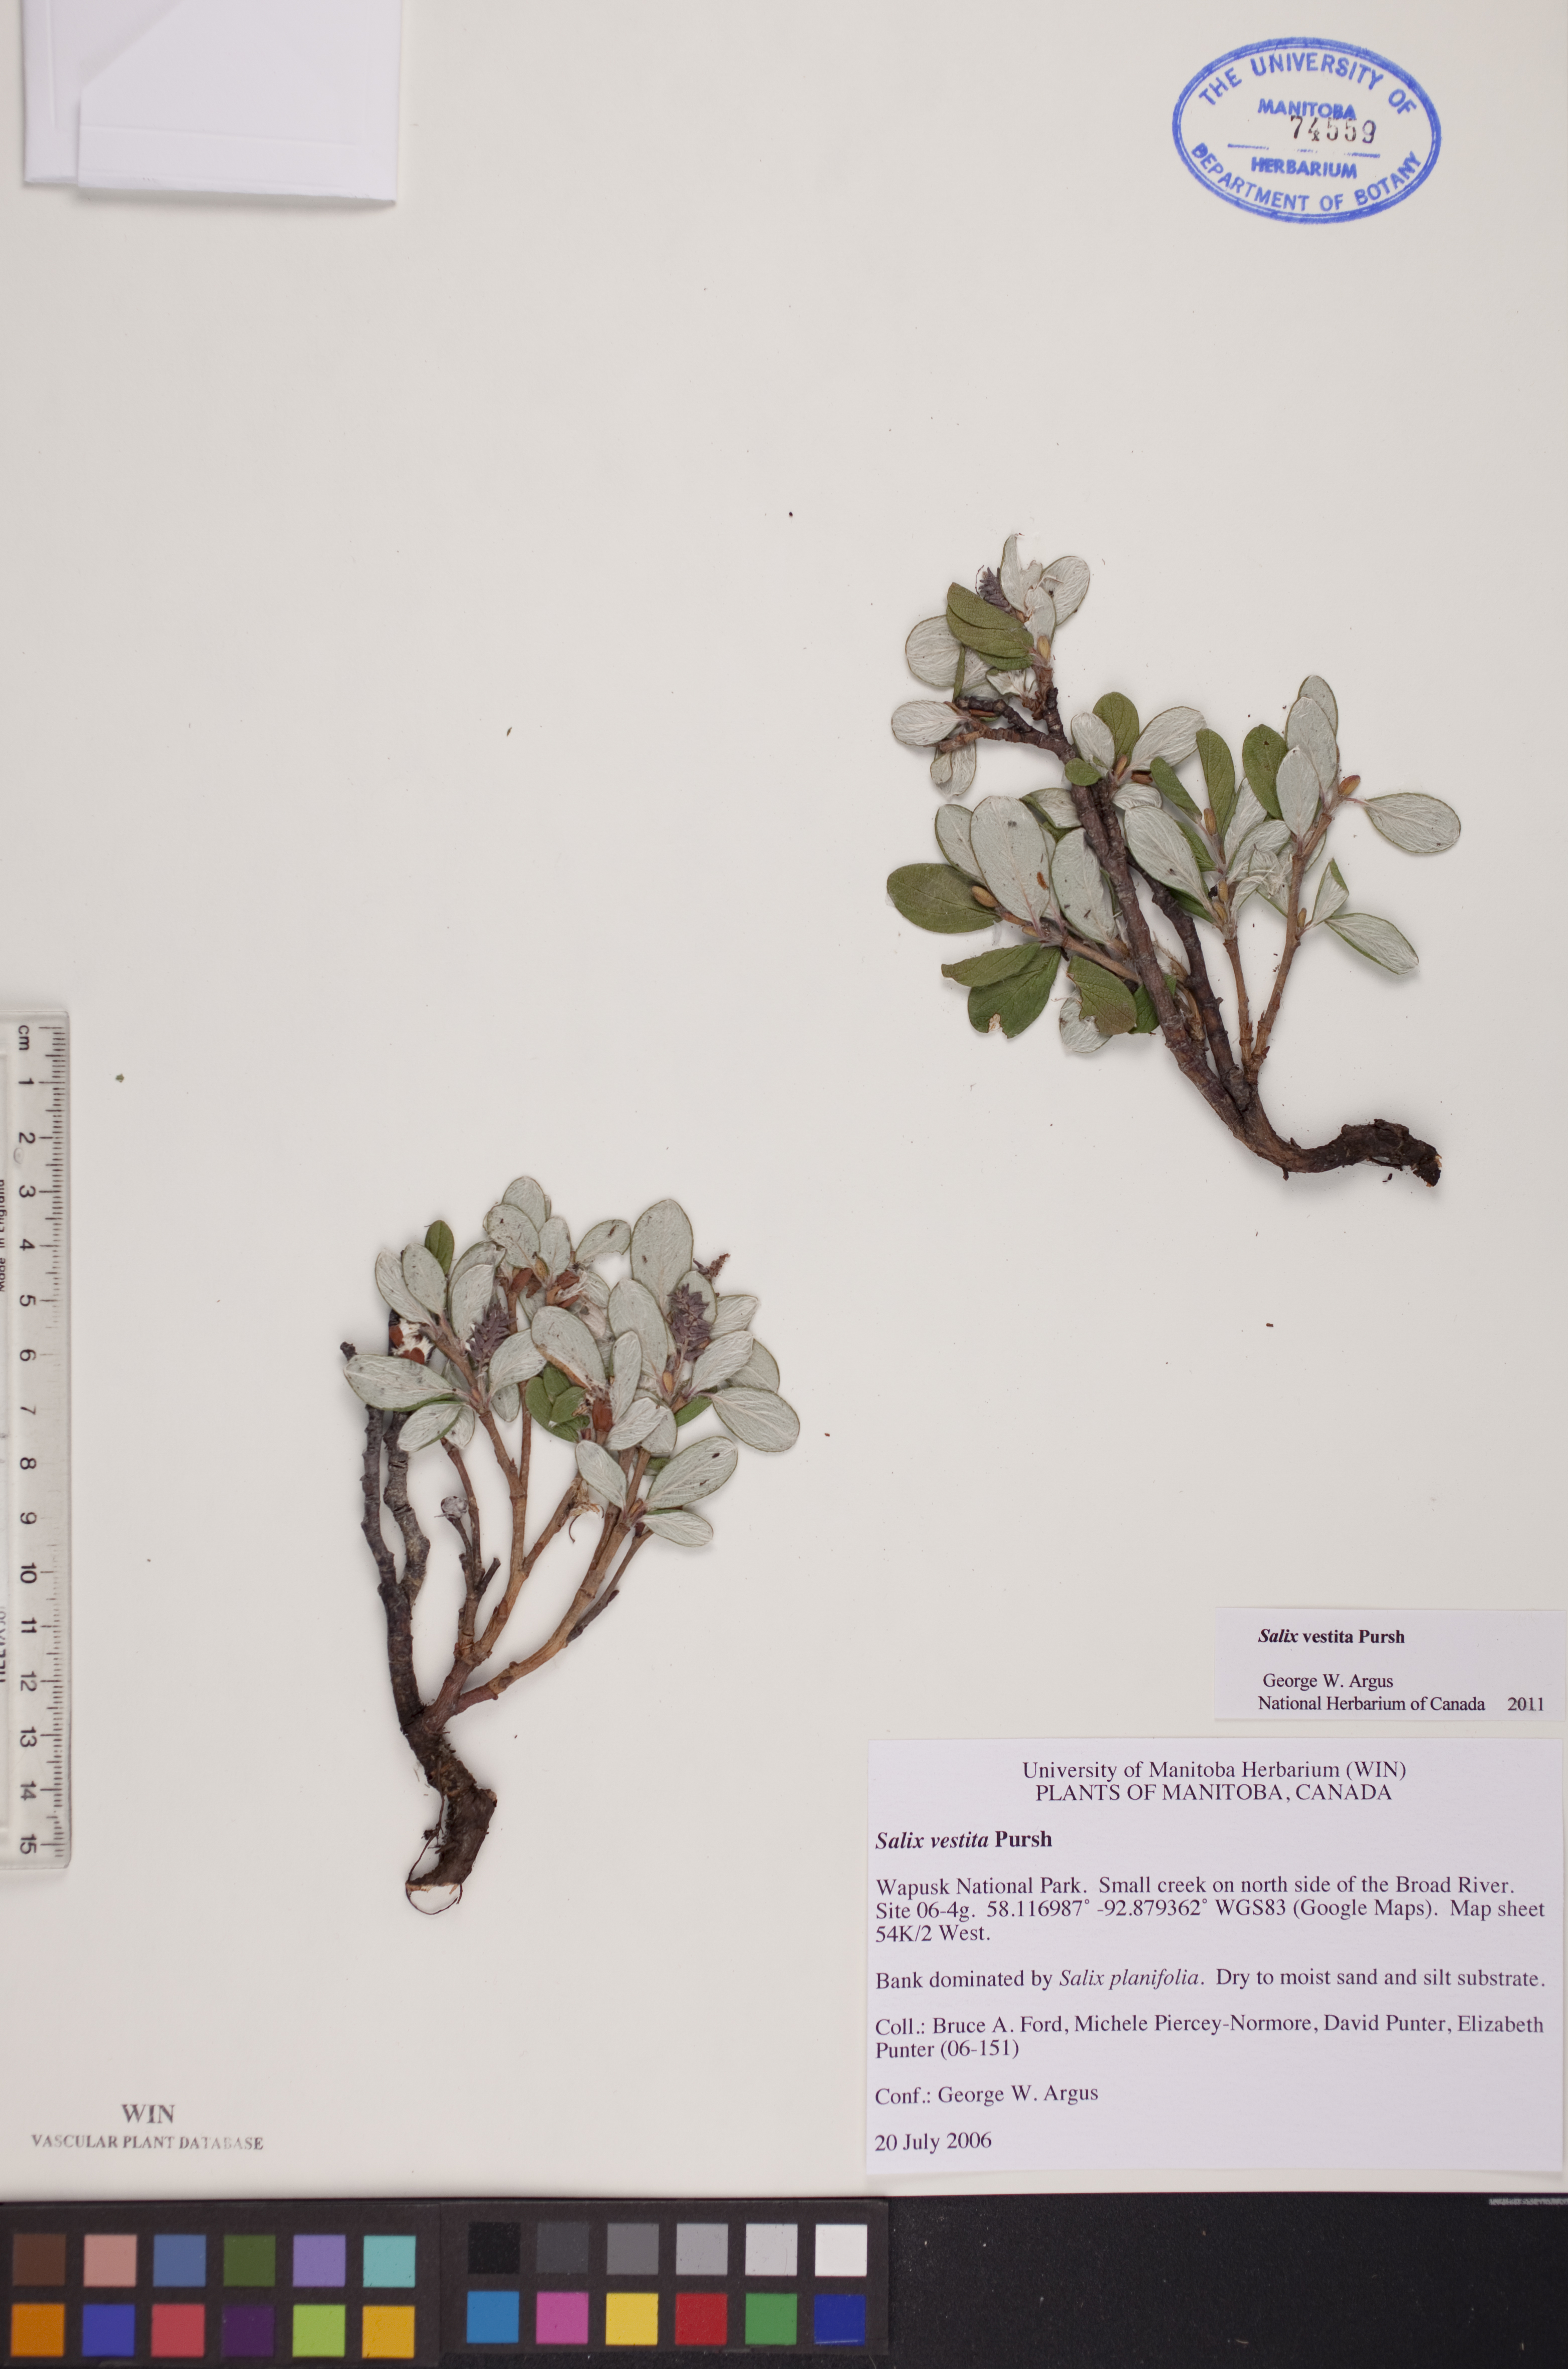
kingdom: Plantae
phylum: Tracheophyta
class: Magnoliopsida
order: Malpighiales
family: Salicaceae
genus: Salix
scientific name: Salix vestita
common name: Hairy willow
